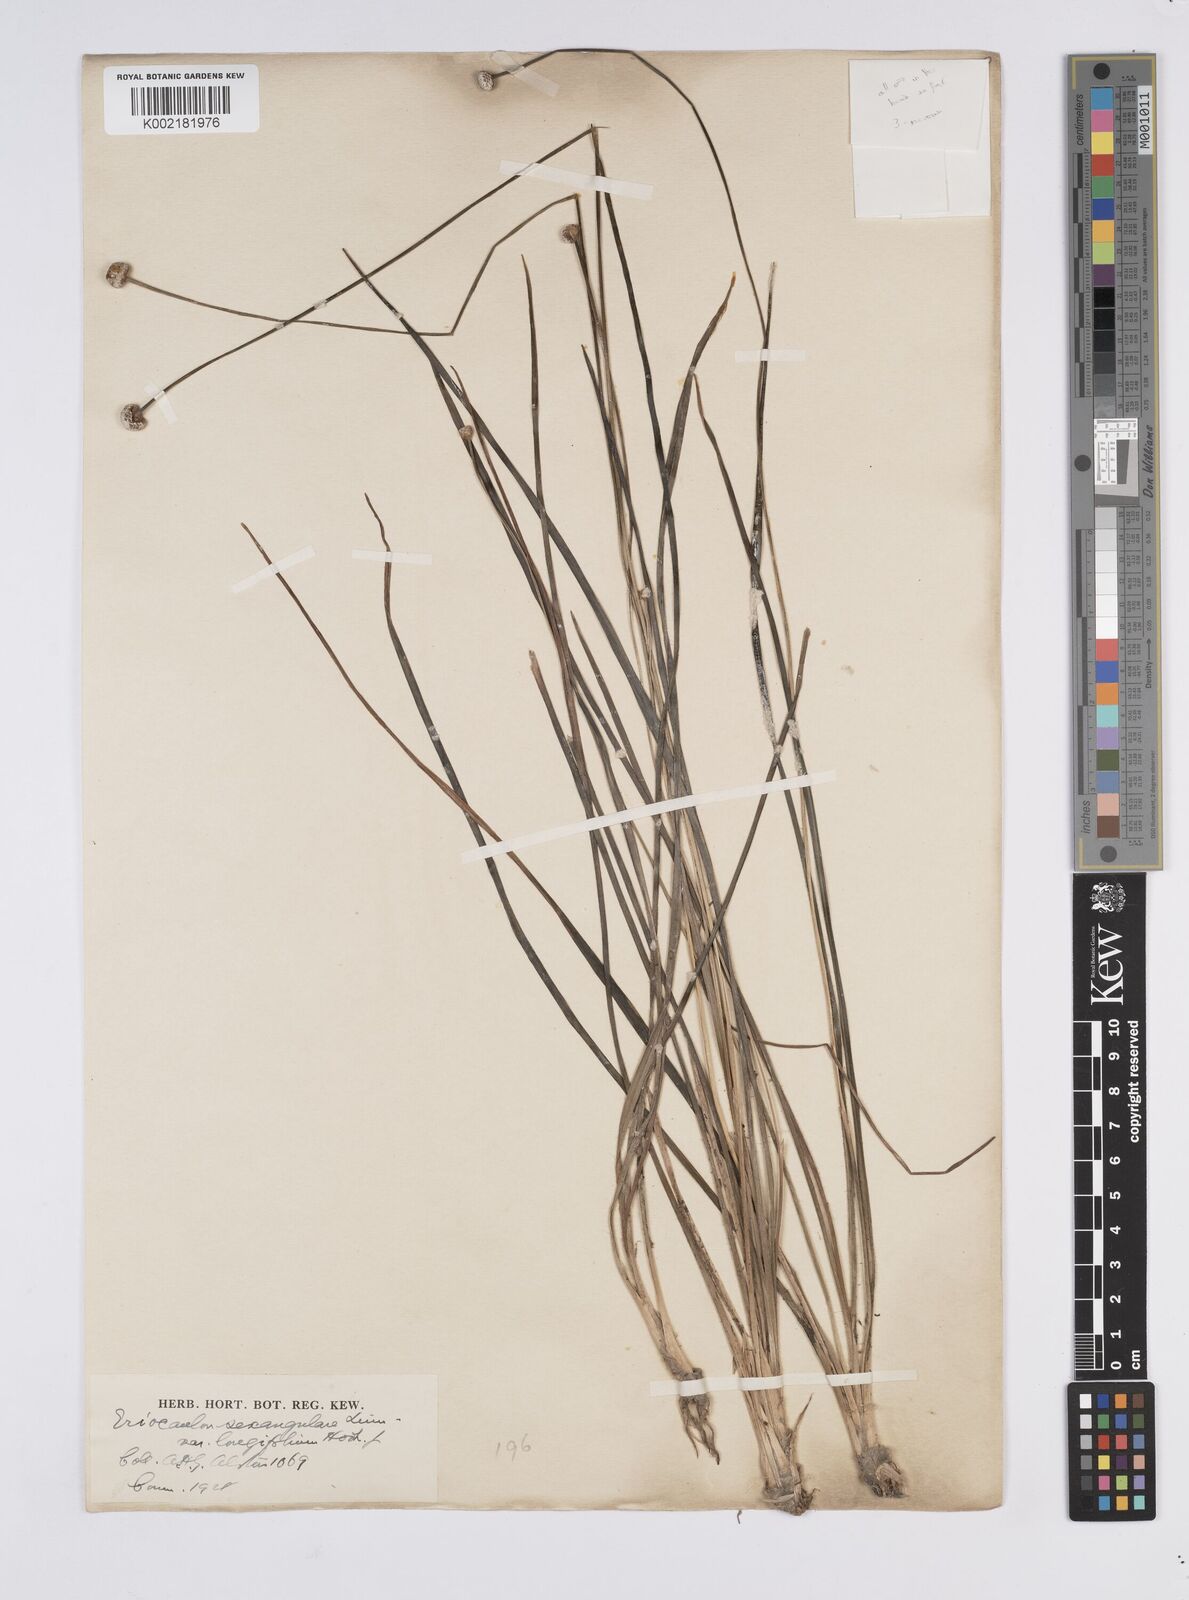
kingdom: Plantae
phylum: Tracheophyta
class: Liliopsida
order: Poales
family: Eriocaulaceae
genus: Eriocaulon
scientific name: Eriocaulon sexangulare
